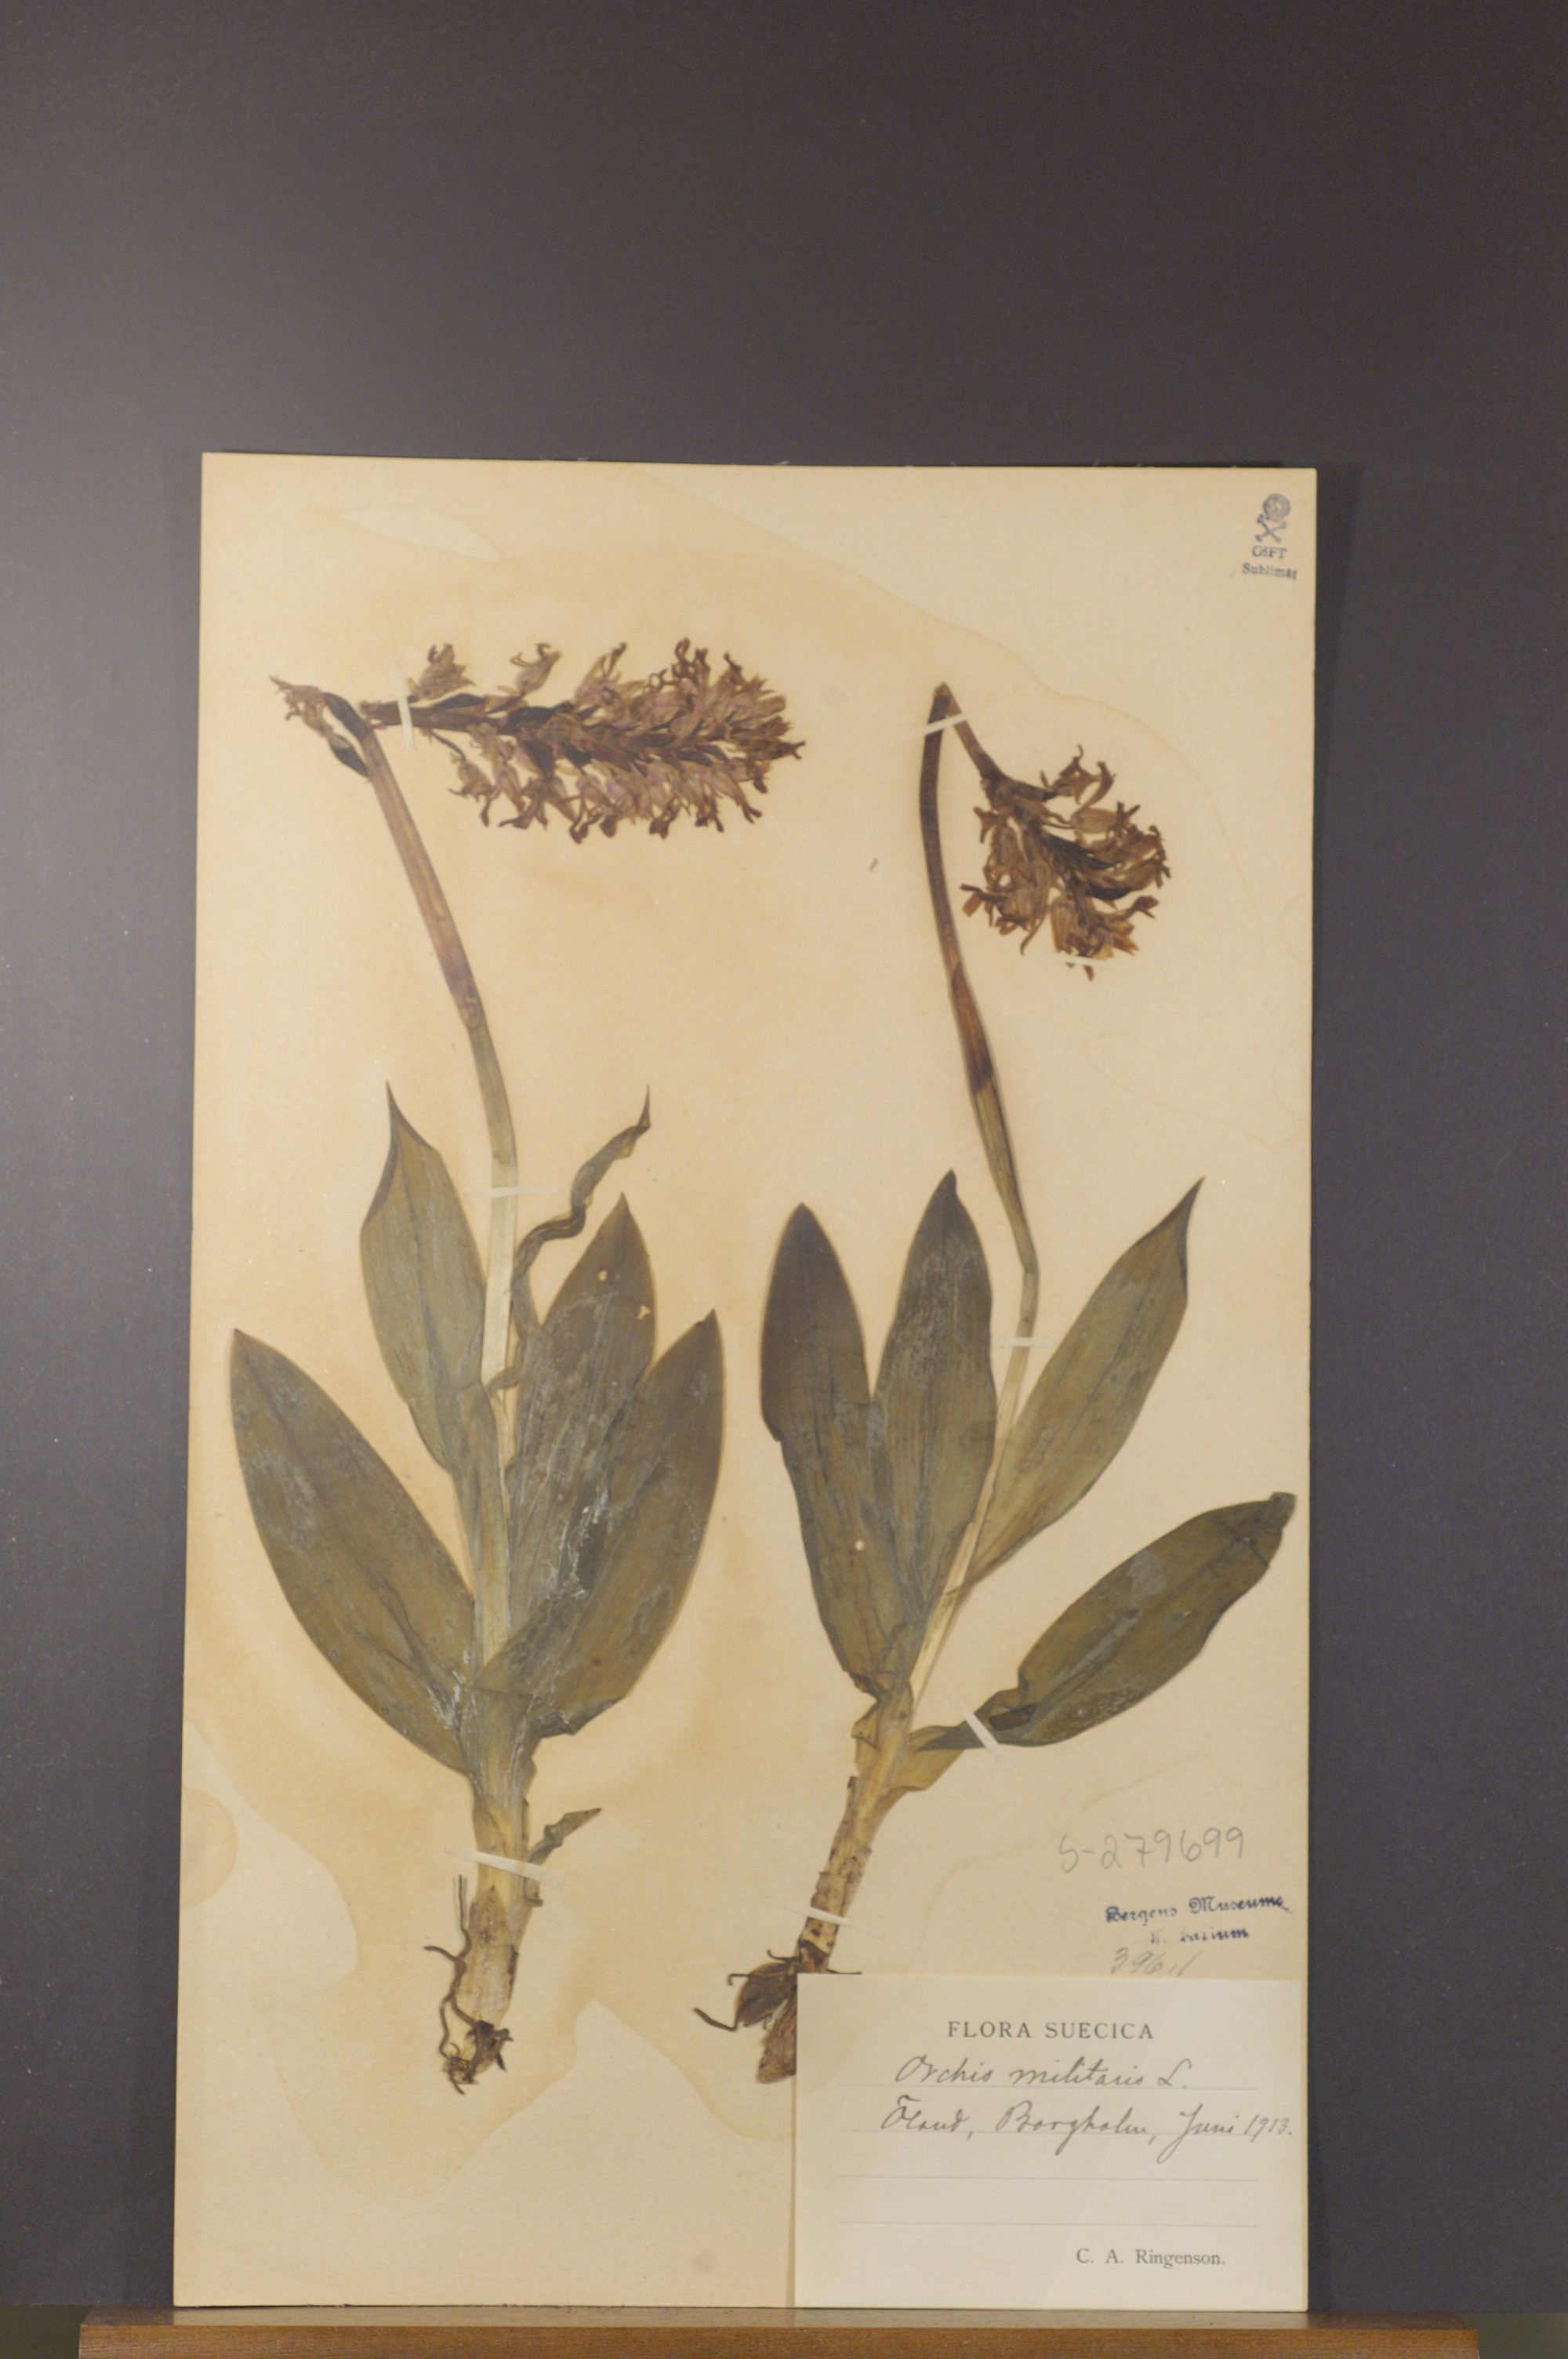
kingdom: Plantae
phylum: Tracheophyta
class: Liliopsida
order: Asparagales
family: Orchidaceae
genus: Orchis
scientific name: Orchis militaris
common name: Military orchid
